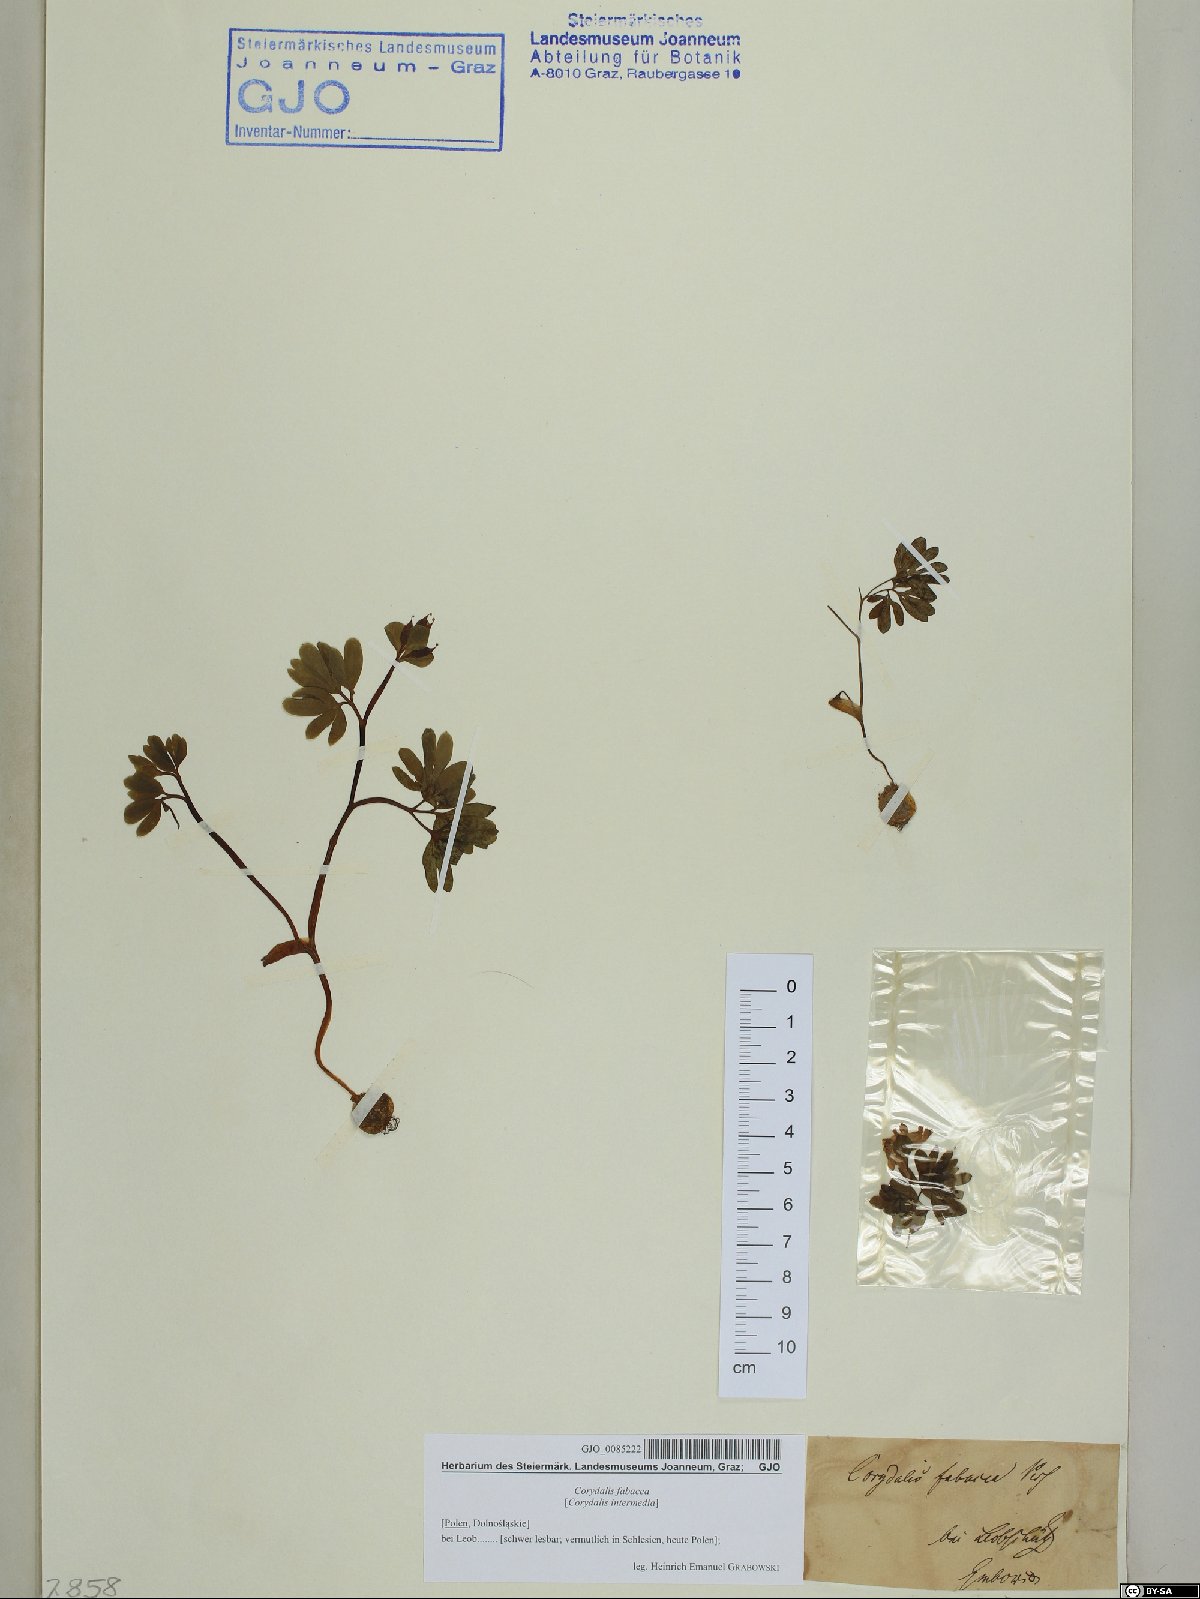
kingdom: Plantae
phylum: Tracheophyta
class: Magnoliopsida
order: Ranunculales
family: Papaveraceae
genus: Corydalis
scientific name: Corydalis intermedia
